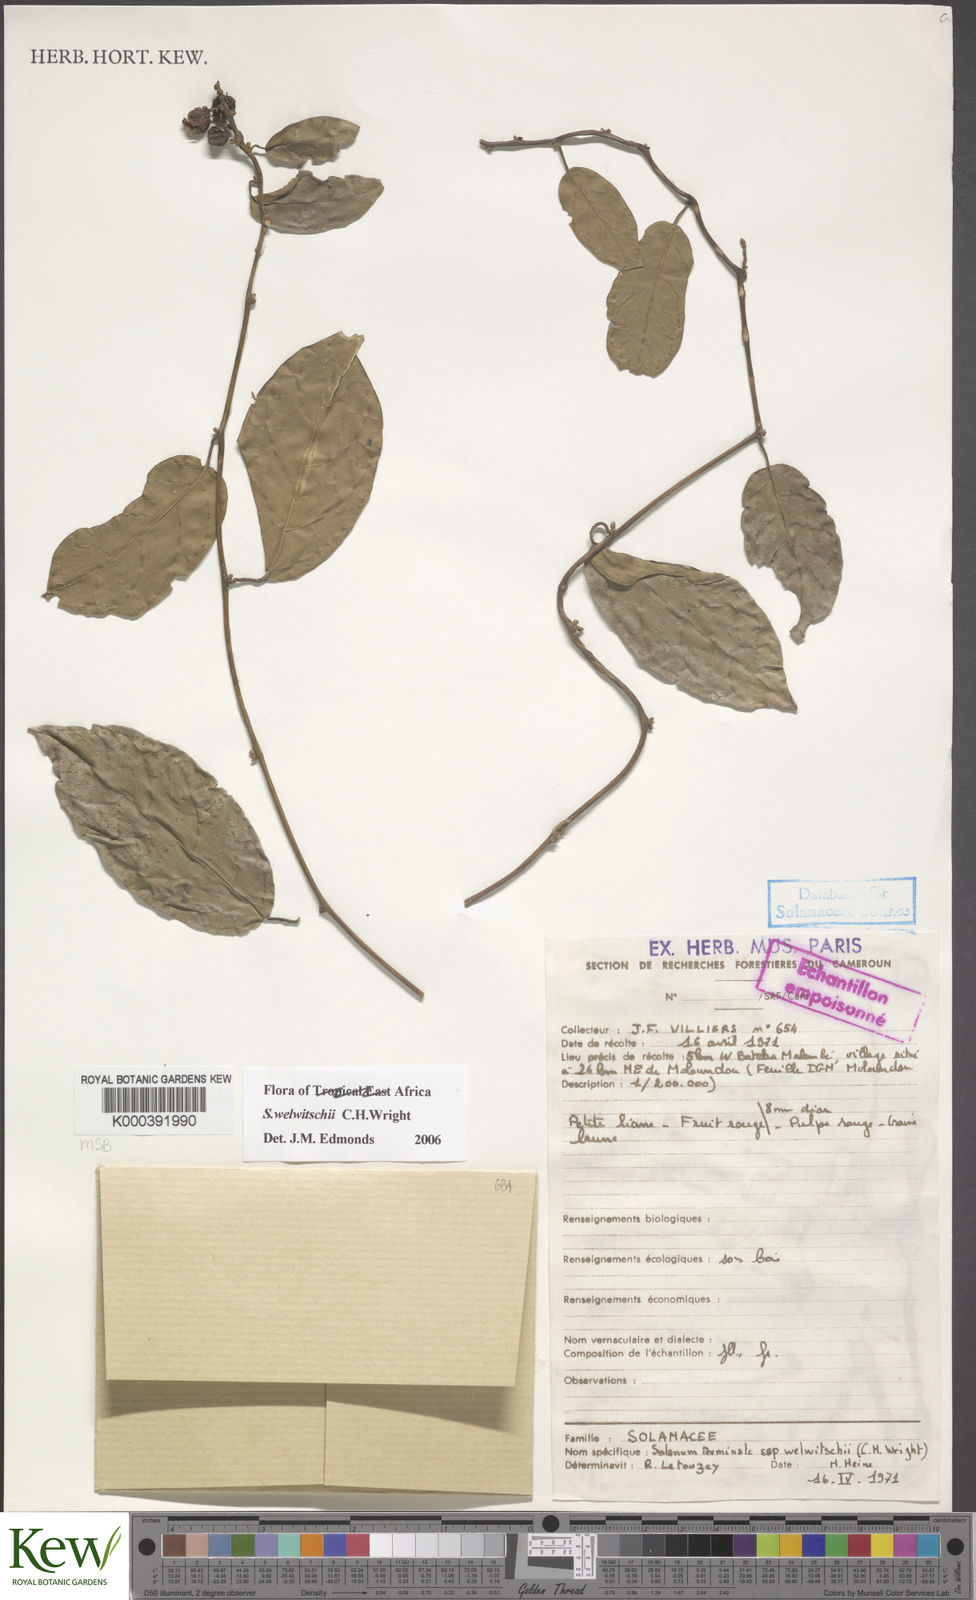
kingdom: Plantae
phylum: Tracheophyta
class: Magnoliopsida
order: Solanales
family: Solanaceae
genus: Solanum
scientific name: Solanum terminale
